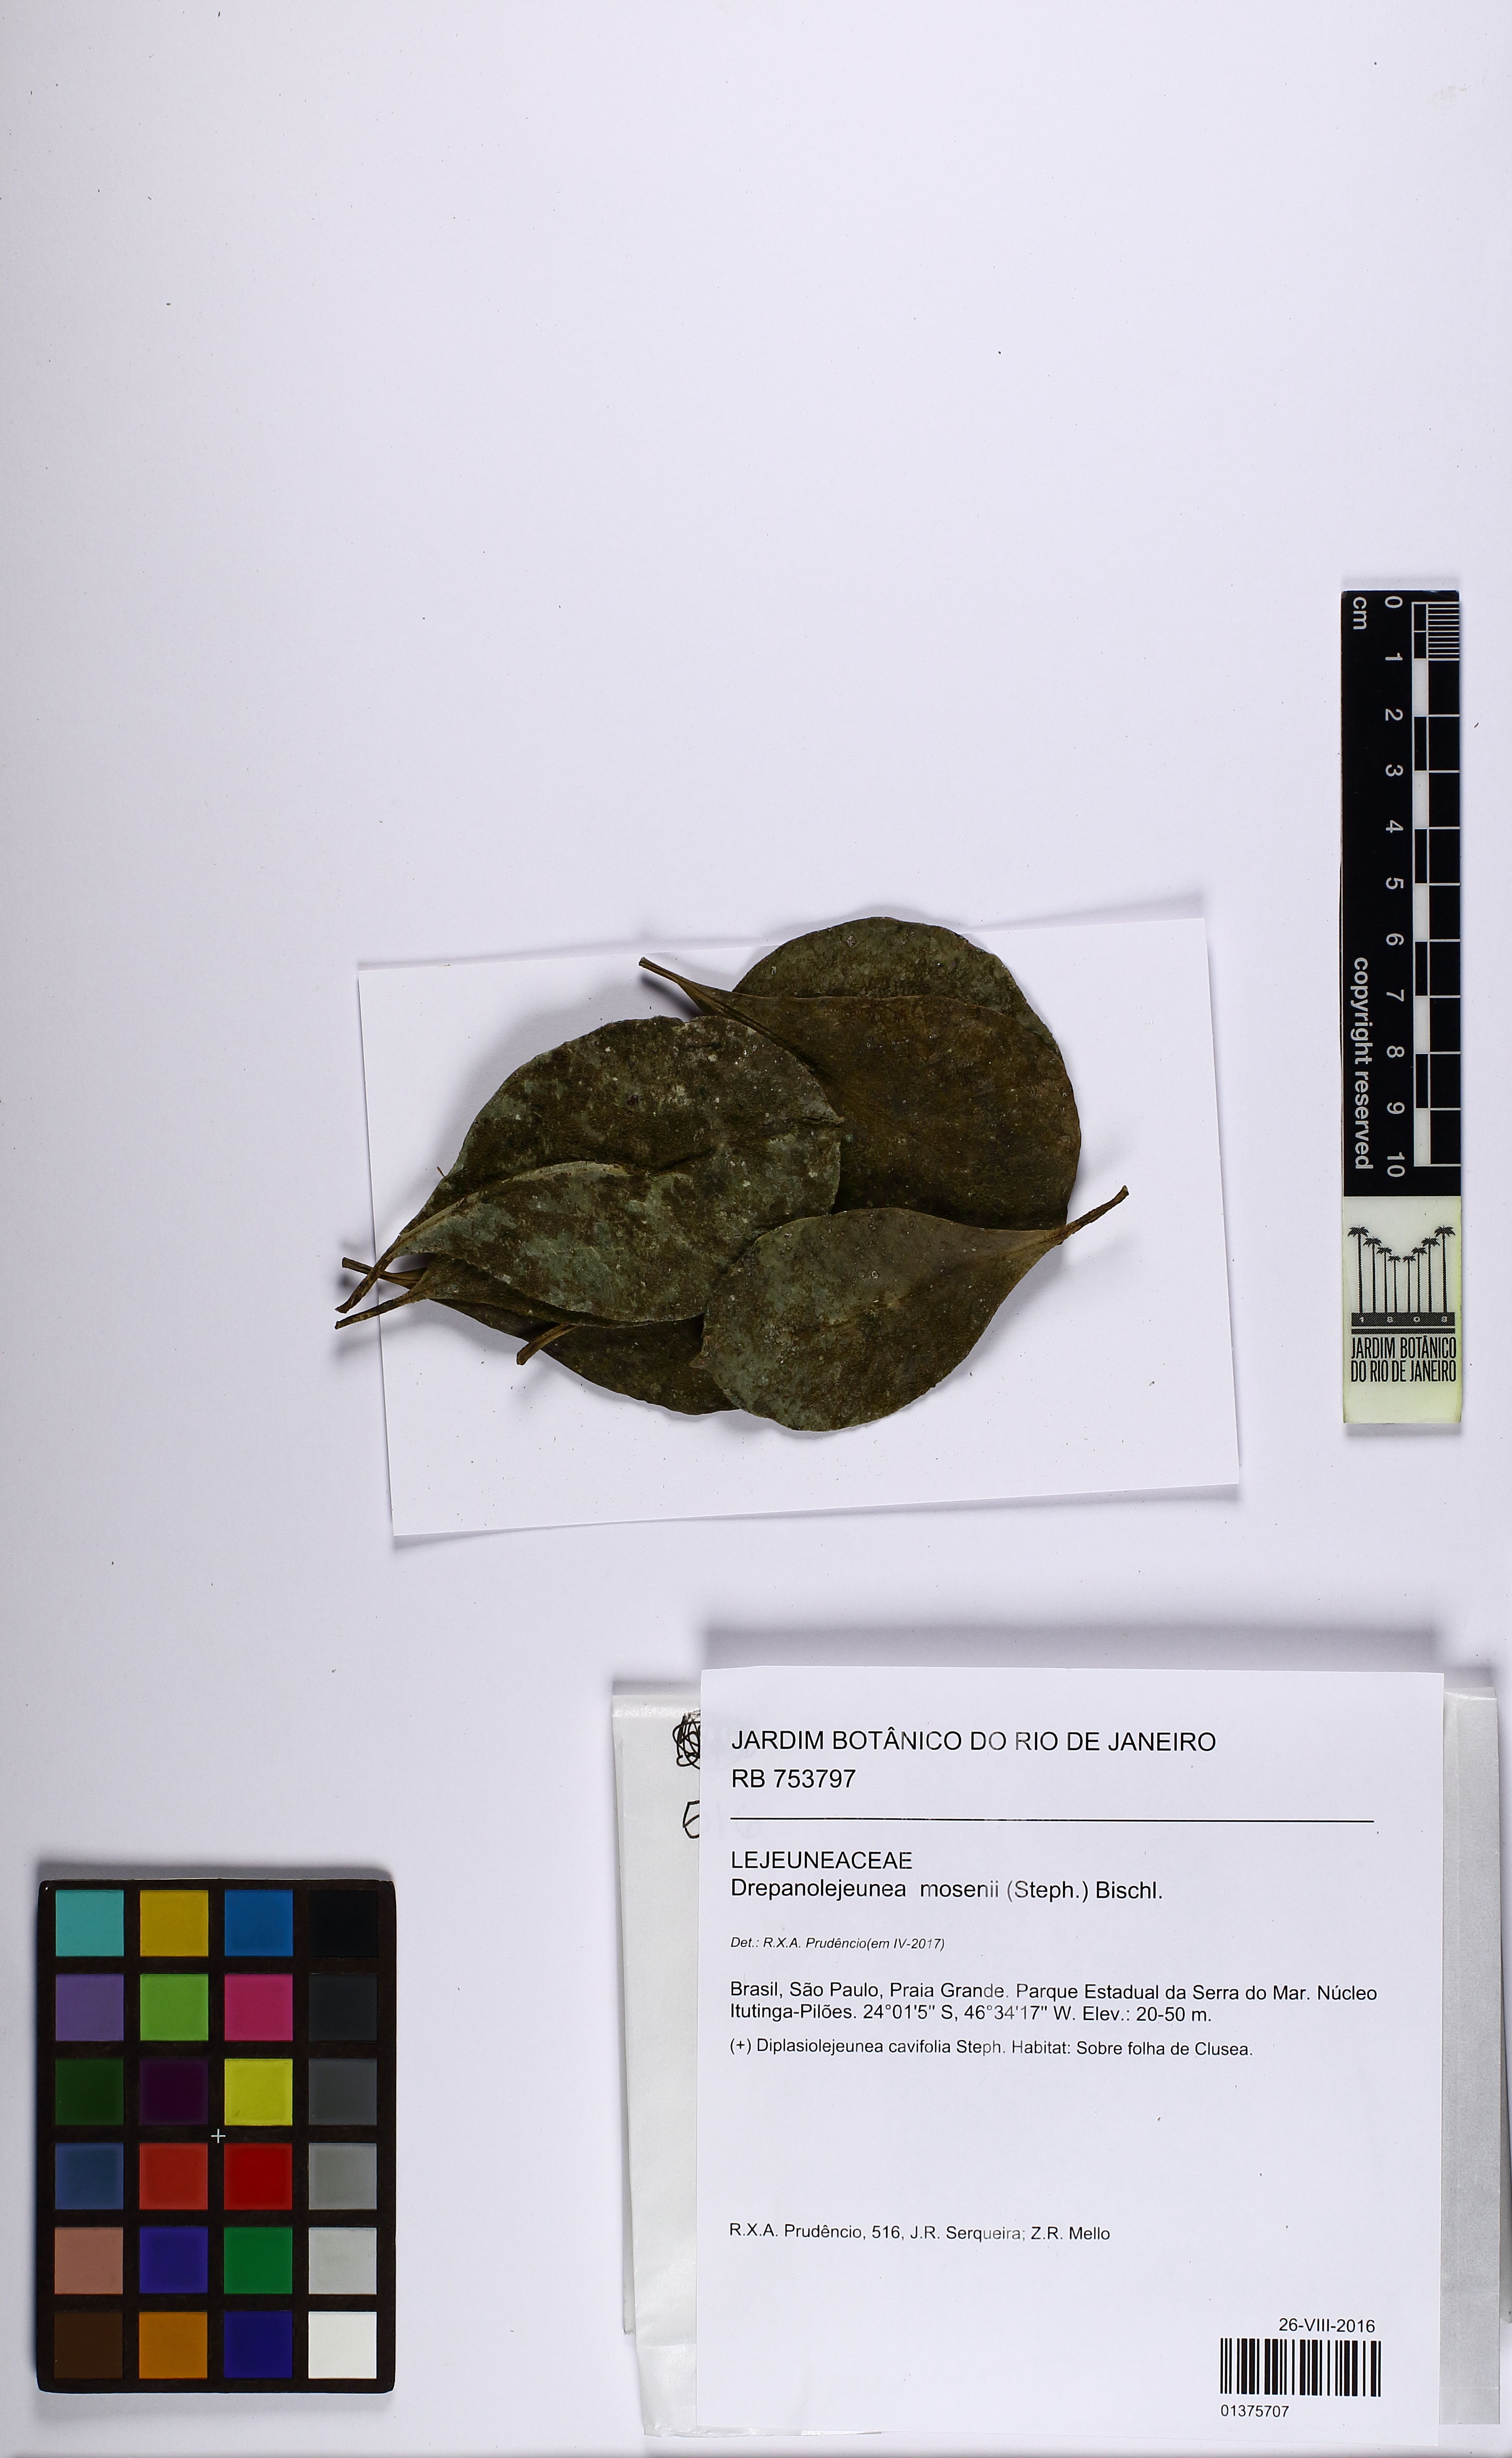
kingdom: Plantae
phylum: Marchantiophyta
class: Jungermanniopsida
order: Porellales
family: Lejeuneaceae
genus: Drepanolejeunea
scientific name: Drepanolejeunea mosenii
